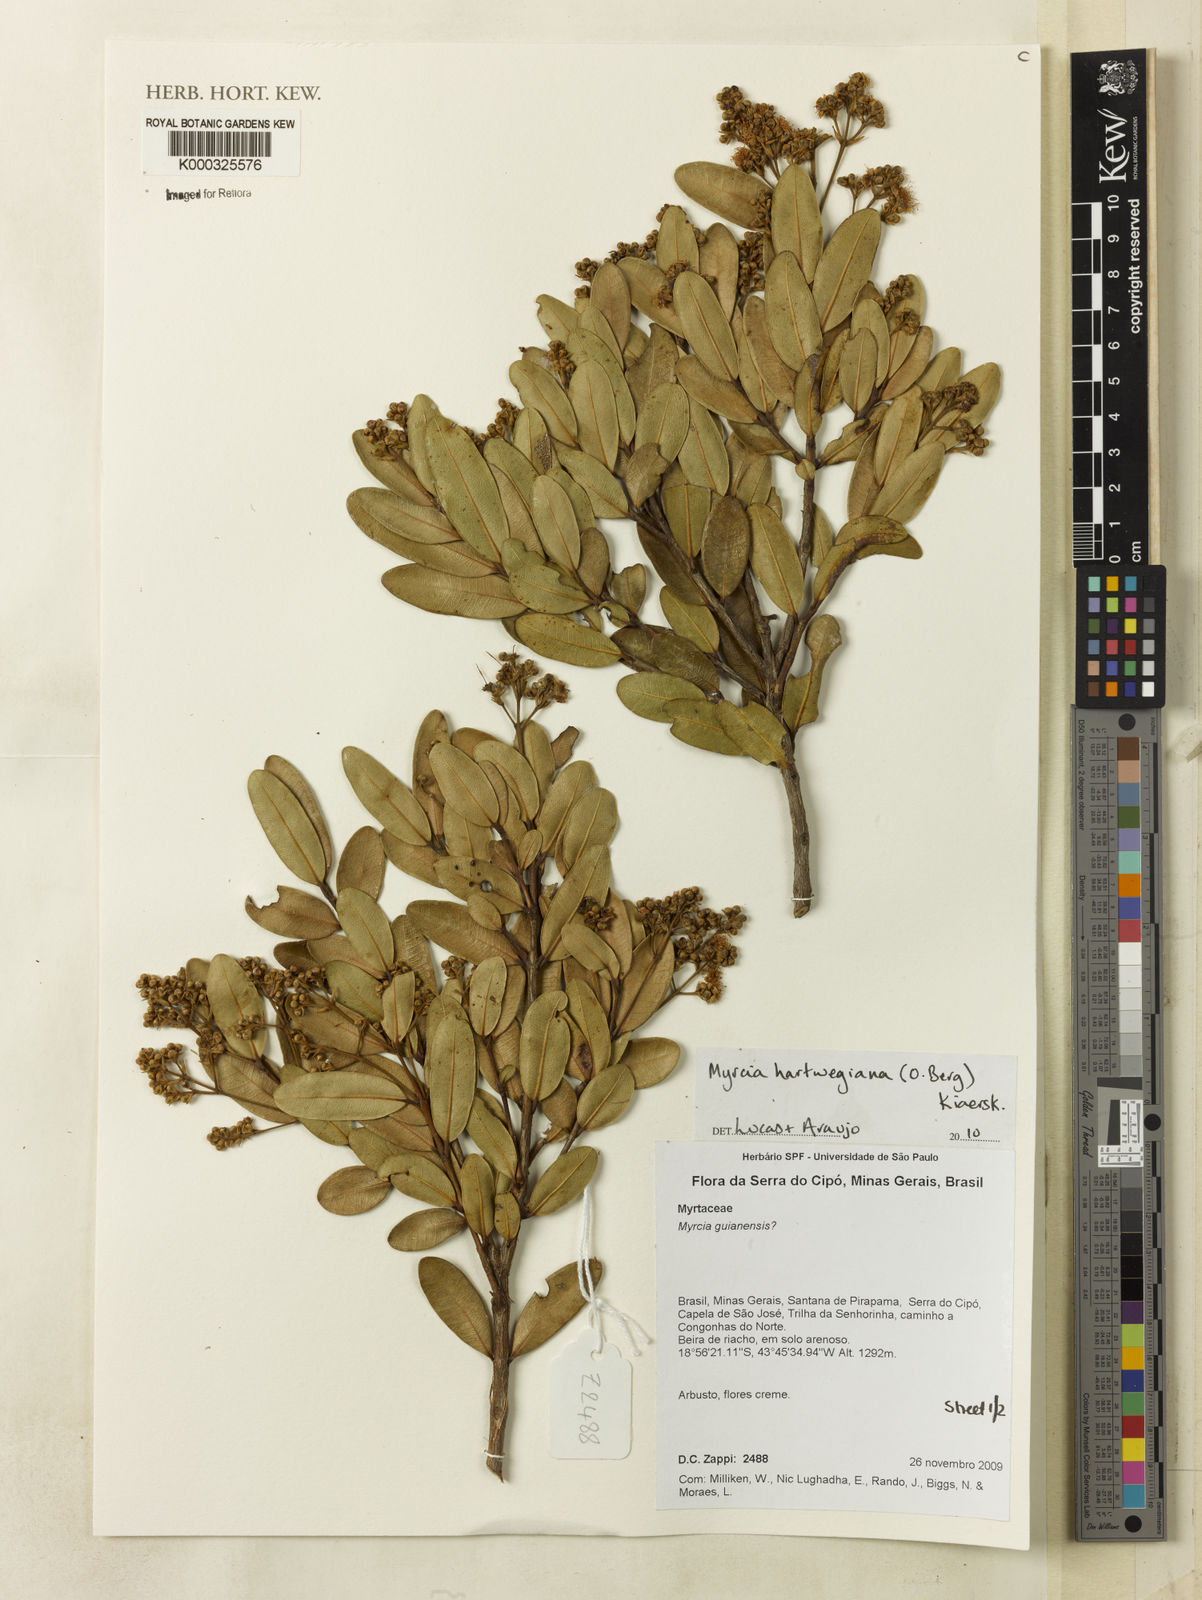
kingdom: Plantae
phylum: Tracheophyta
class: Magnoliopsida
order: Myrtales
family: Myrtaceae
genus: Myrcia
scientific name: Myrcia hartwegiana
